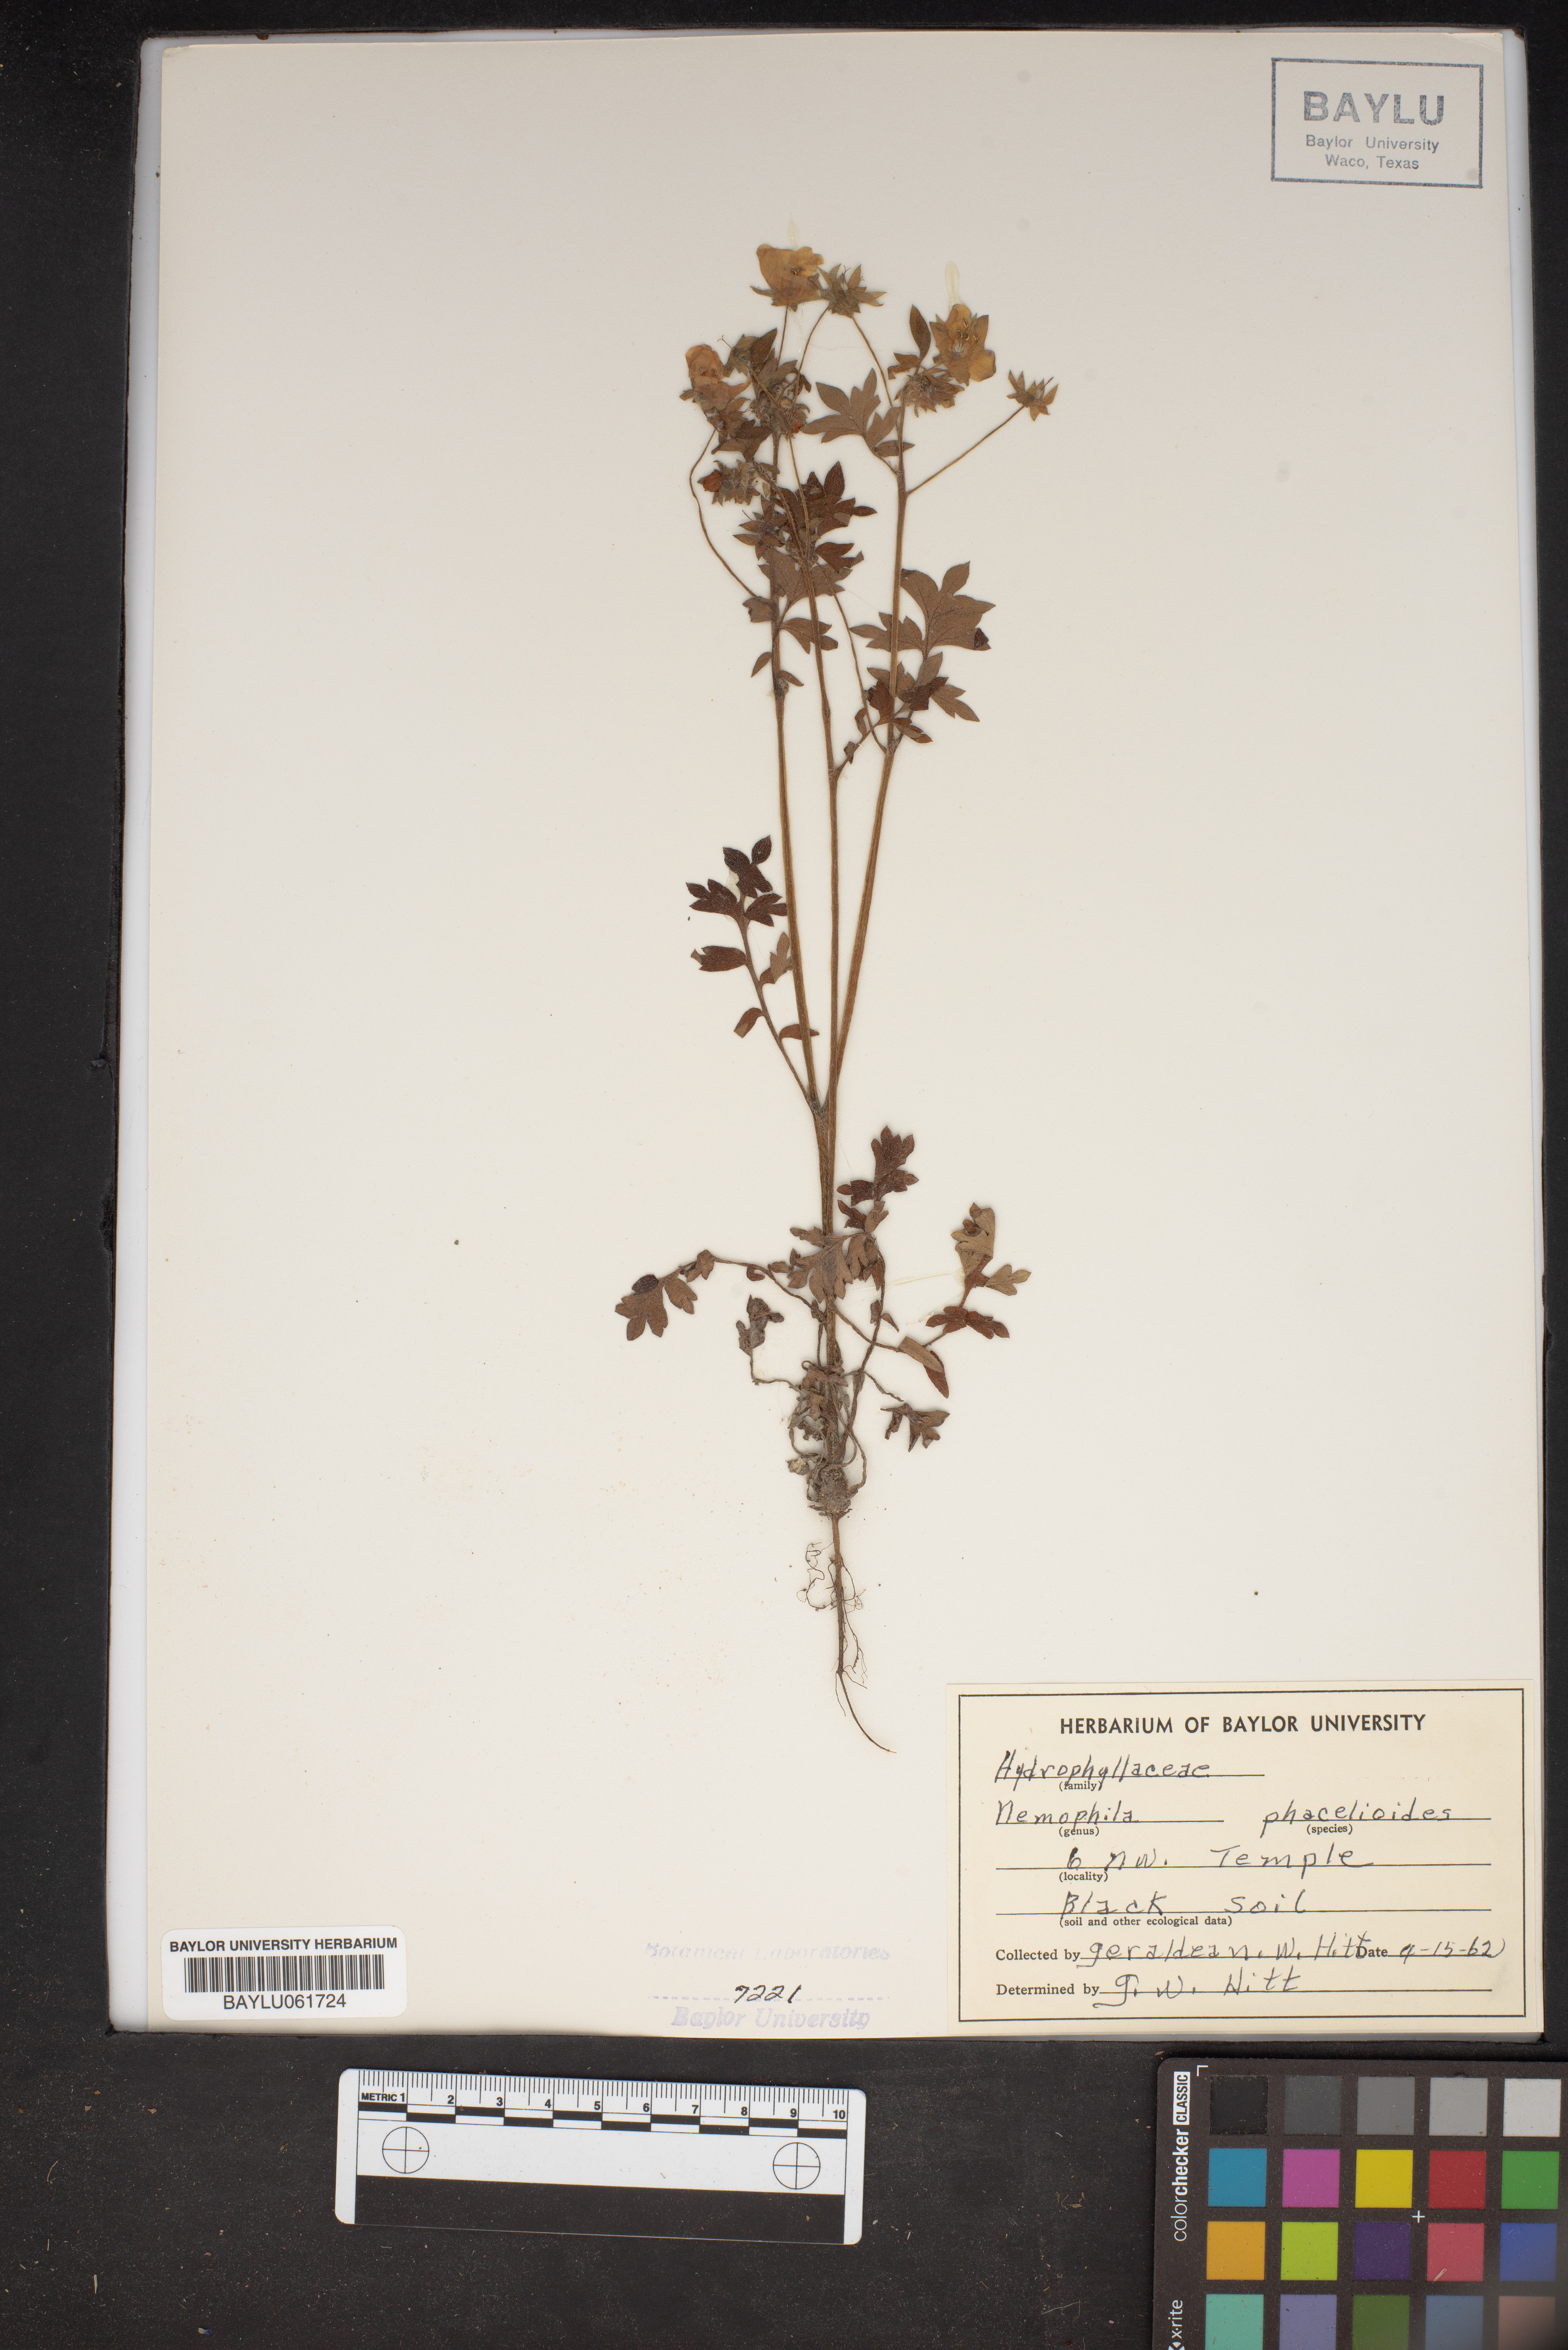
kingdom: Plantae
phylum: Tracheophyta
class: Magnoliopsida
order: Boraginales
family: Hydrophyllaceae
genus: Nemophila
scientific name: Nemophila phacelioides
